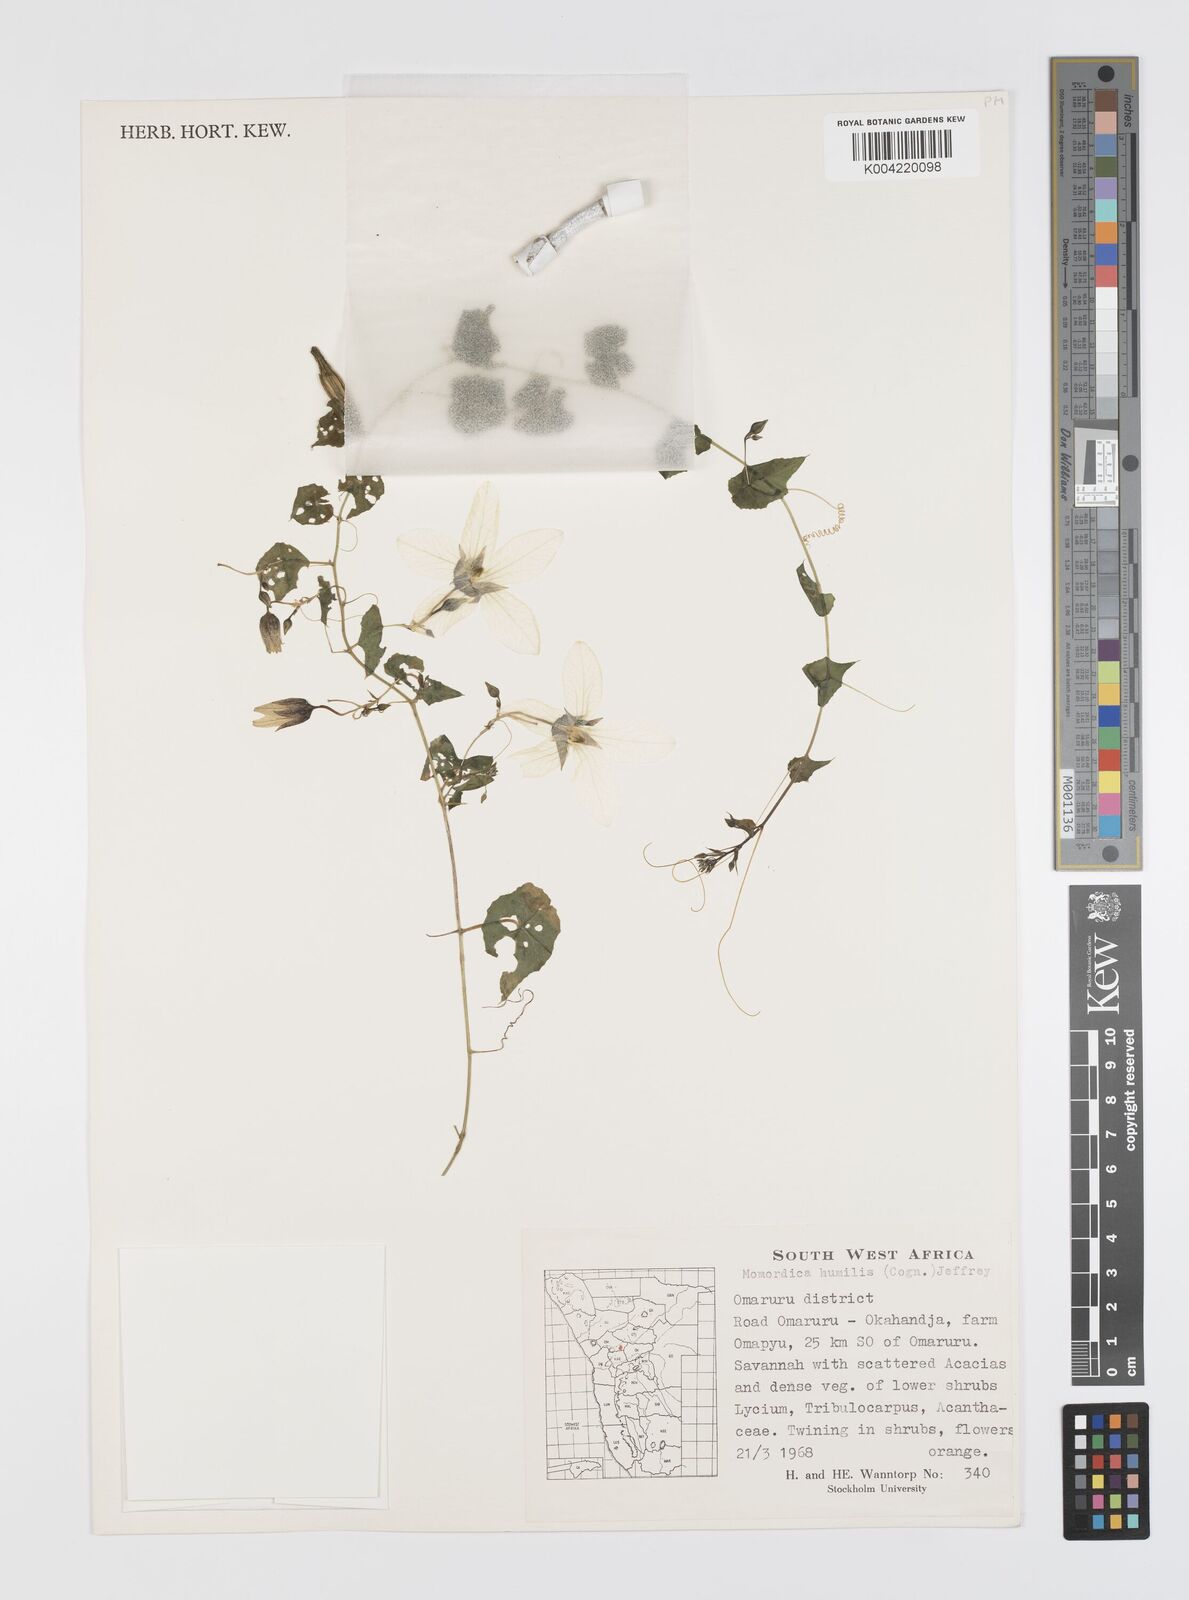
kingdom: Plantae
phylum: Tracheophyta
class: Magnoliopsida
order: Cucurbitales
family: Cucurbitaceae
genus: Momordica
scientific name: Momordica
